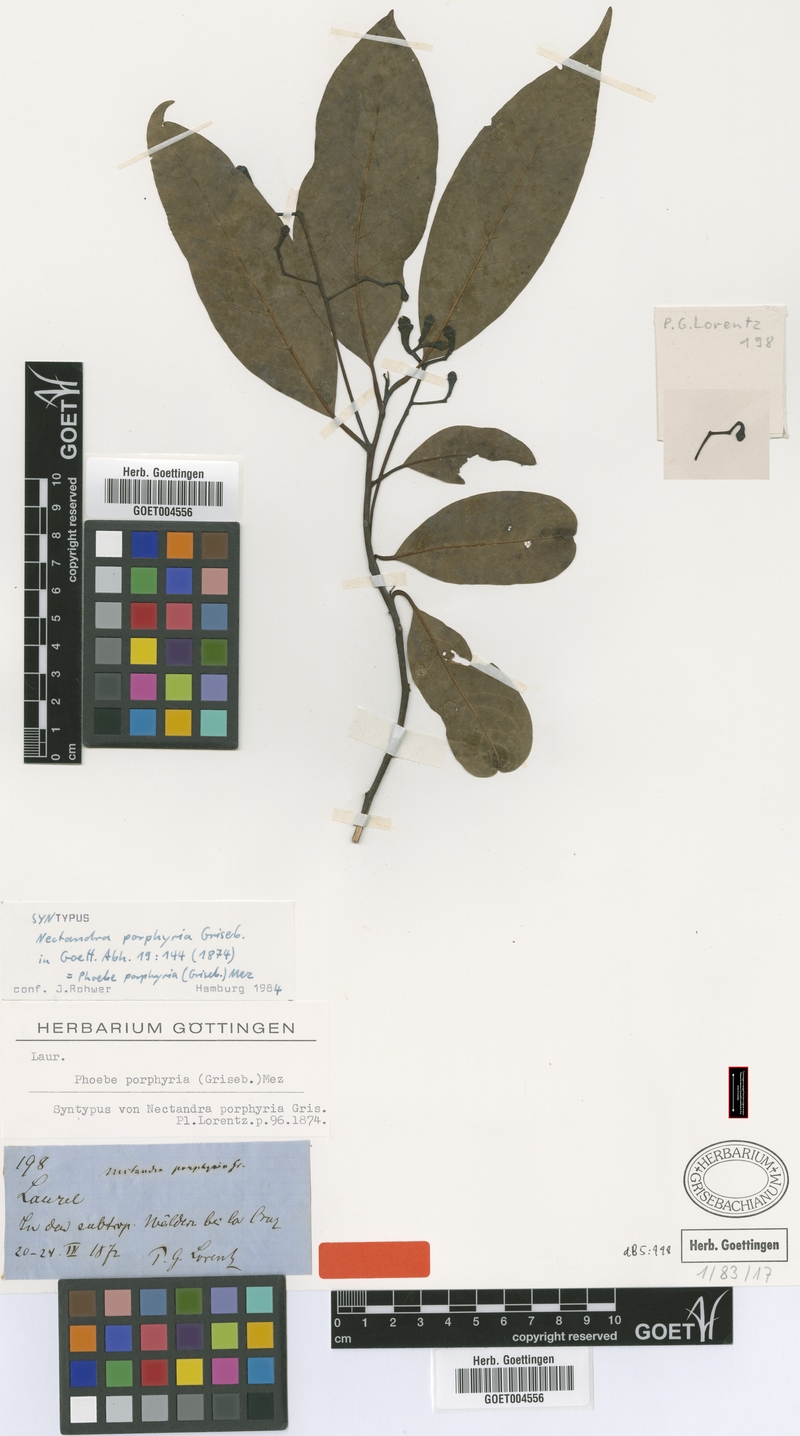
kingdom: Plantae
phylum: Tracheophyta
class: Magnoliopsida
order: Laurales
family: Lauraceae
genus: Ocotea
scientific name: Ocotea porphyria
